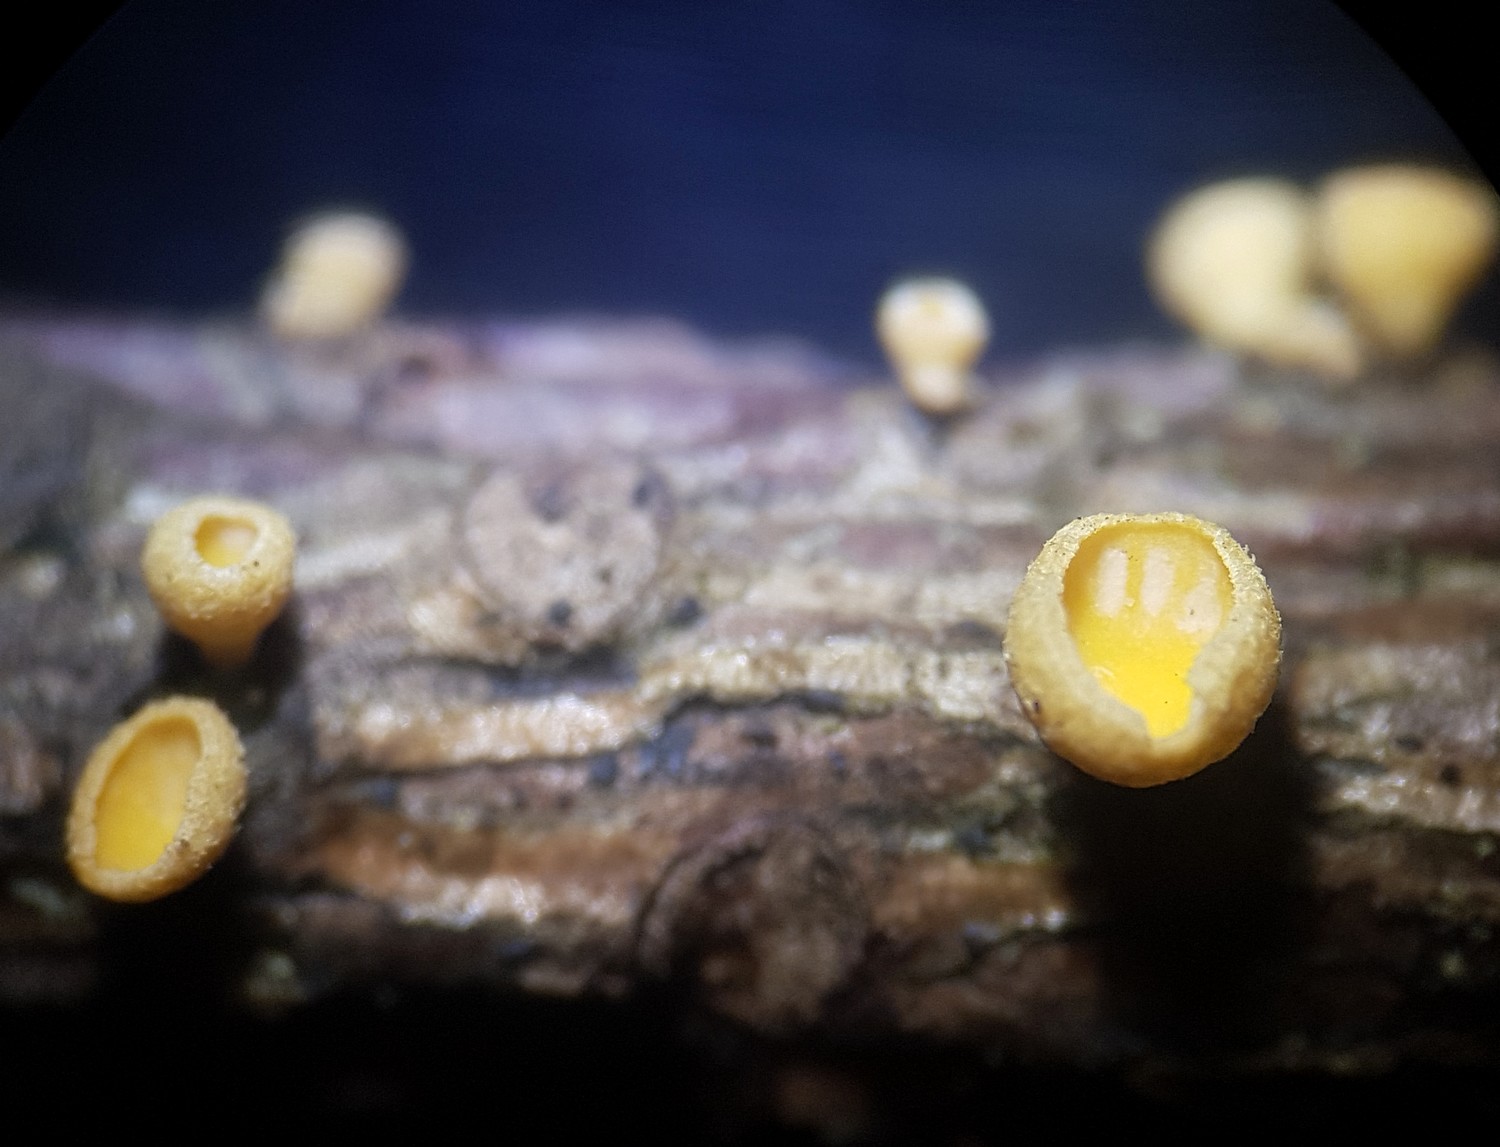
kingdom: Fungi
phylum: Ascomycota
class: Leotiomycetes
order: Helotiales
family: Lachnaceae
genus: Lachnellula
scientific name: Lachnellula subtilissima
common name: gran-frynseskive
